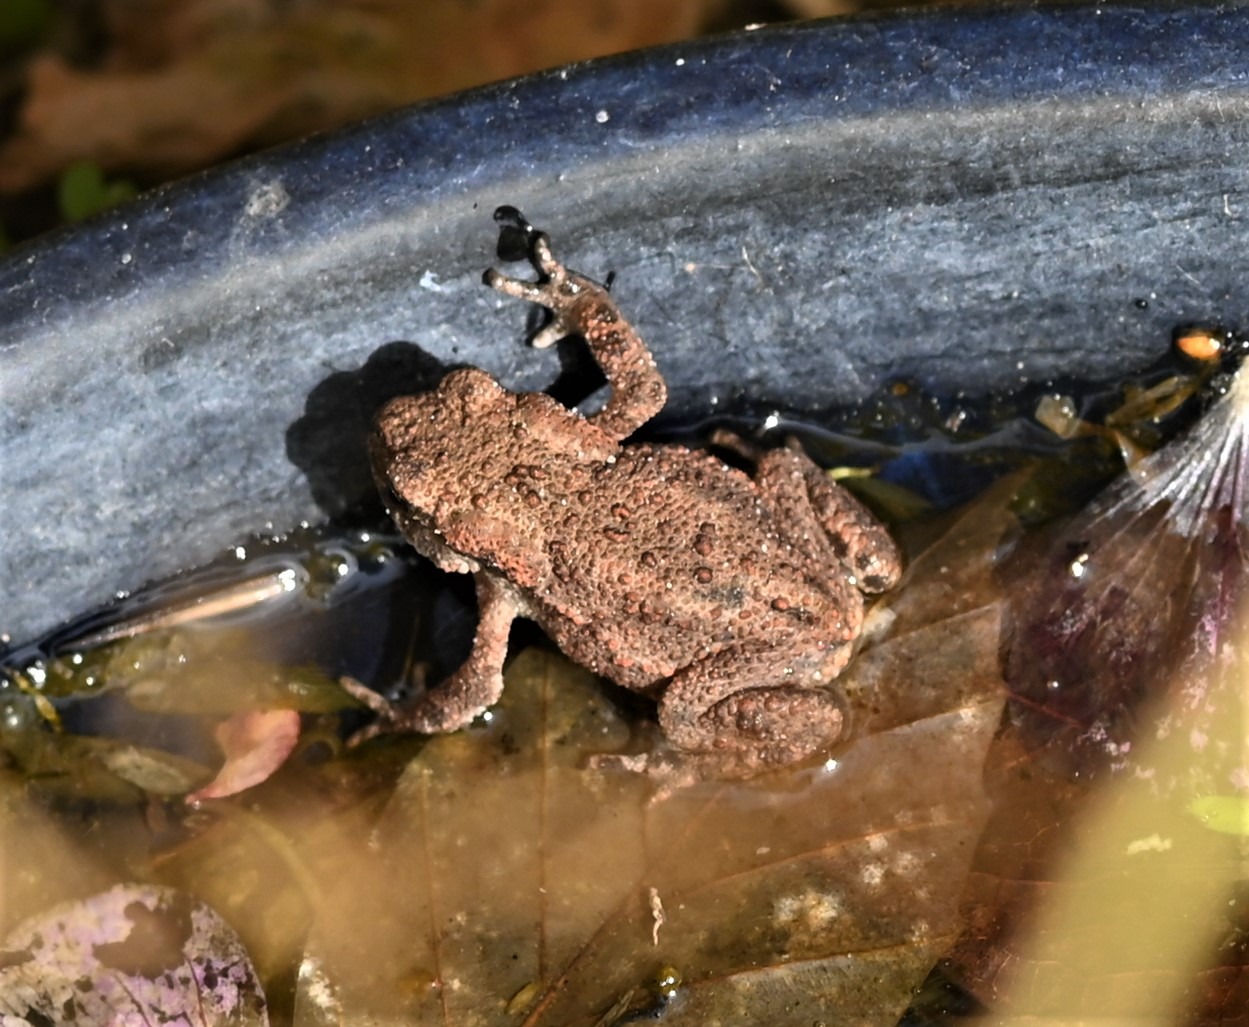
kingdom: Animalia
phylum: Chordata
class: Amphibia
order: Anura
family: Bufonidae
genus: Bufo
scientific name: Bufo bufo
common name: Skrubtudse
